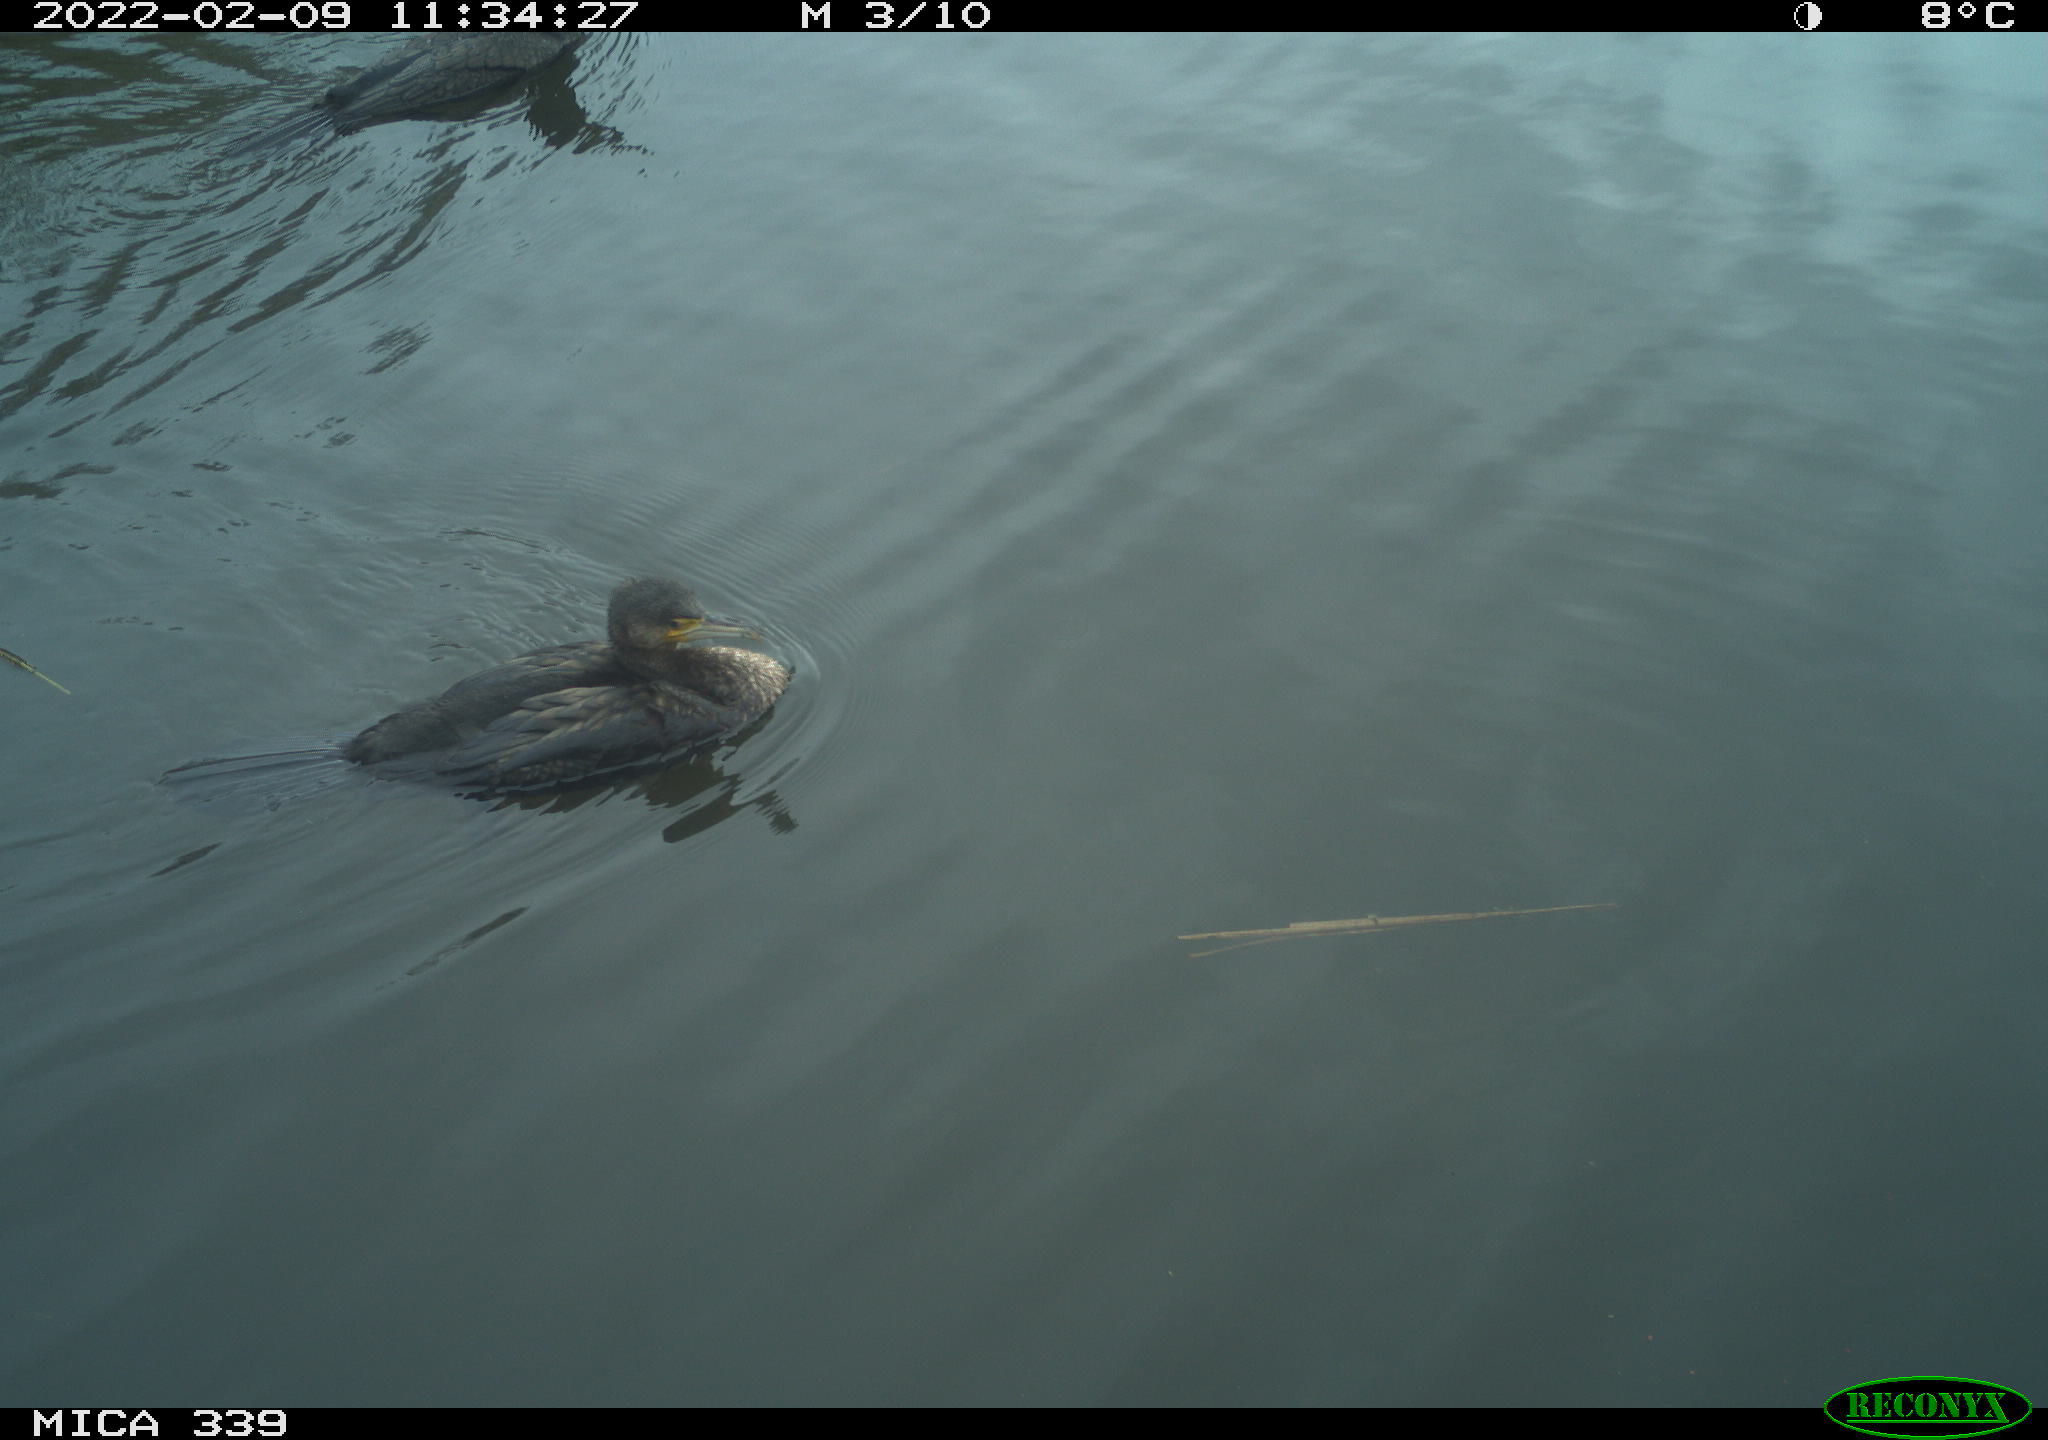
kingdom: Animalia
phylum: Chordata
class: Aves
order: Suliformes
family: Phalacrocoracidae
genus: Phalacrocorax
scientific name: Phalacrocorax carbo
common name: Great cormorant
